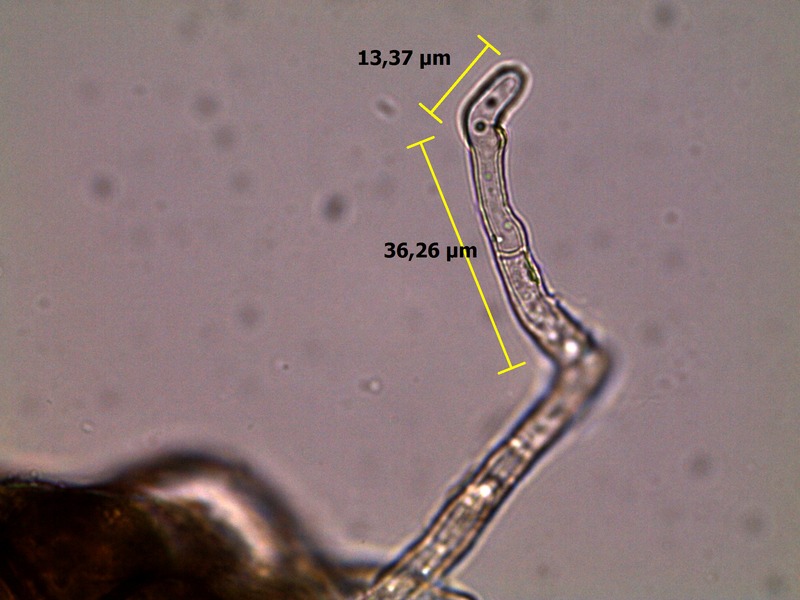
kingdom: Fungi
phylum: Ascomycota
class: Leotiomycetes
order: Helotiales
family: Erysiphaceae
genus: Podosphaera
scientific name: Podosphaera fusca
